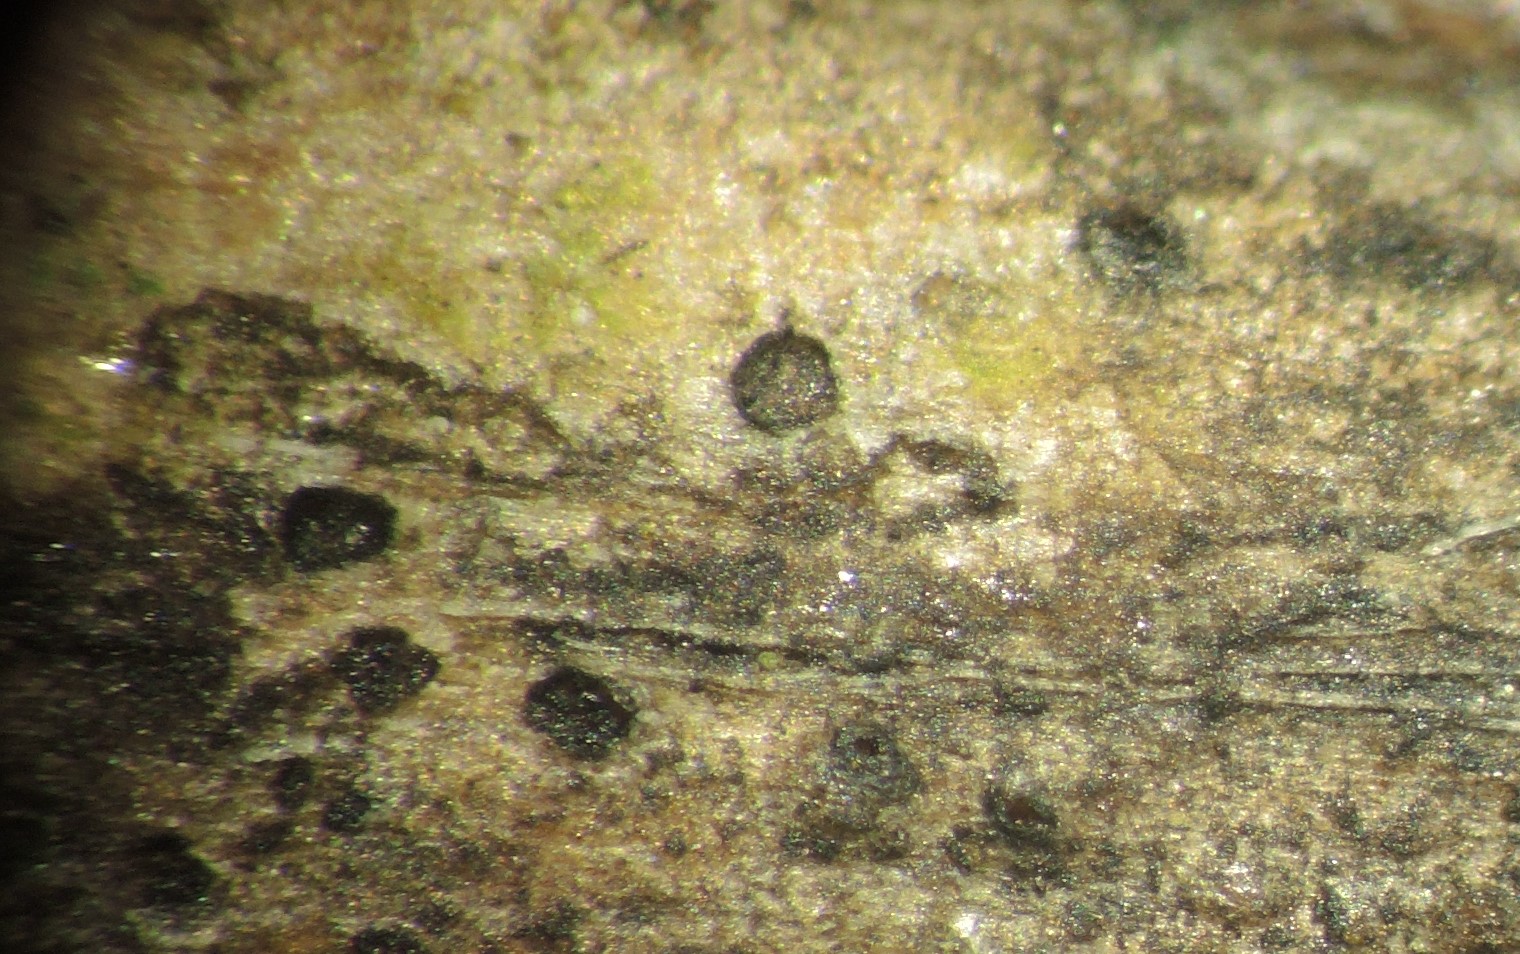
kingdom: Fungi
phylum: Ascomycota
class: Sordariomycetes
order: Diaporthales
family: Diaporthaceae
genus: Diaporthe
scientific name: Diaporthe cryptica
